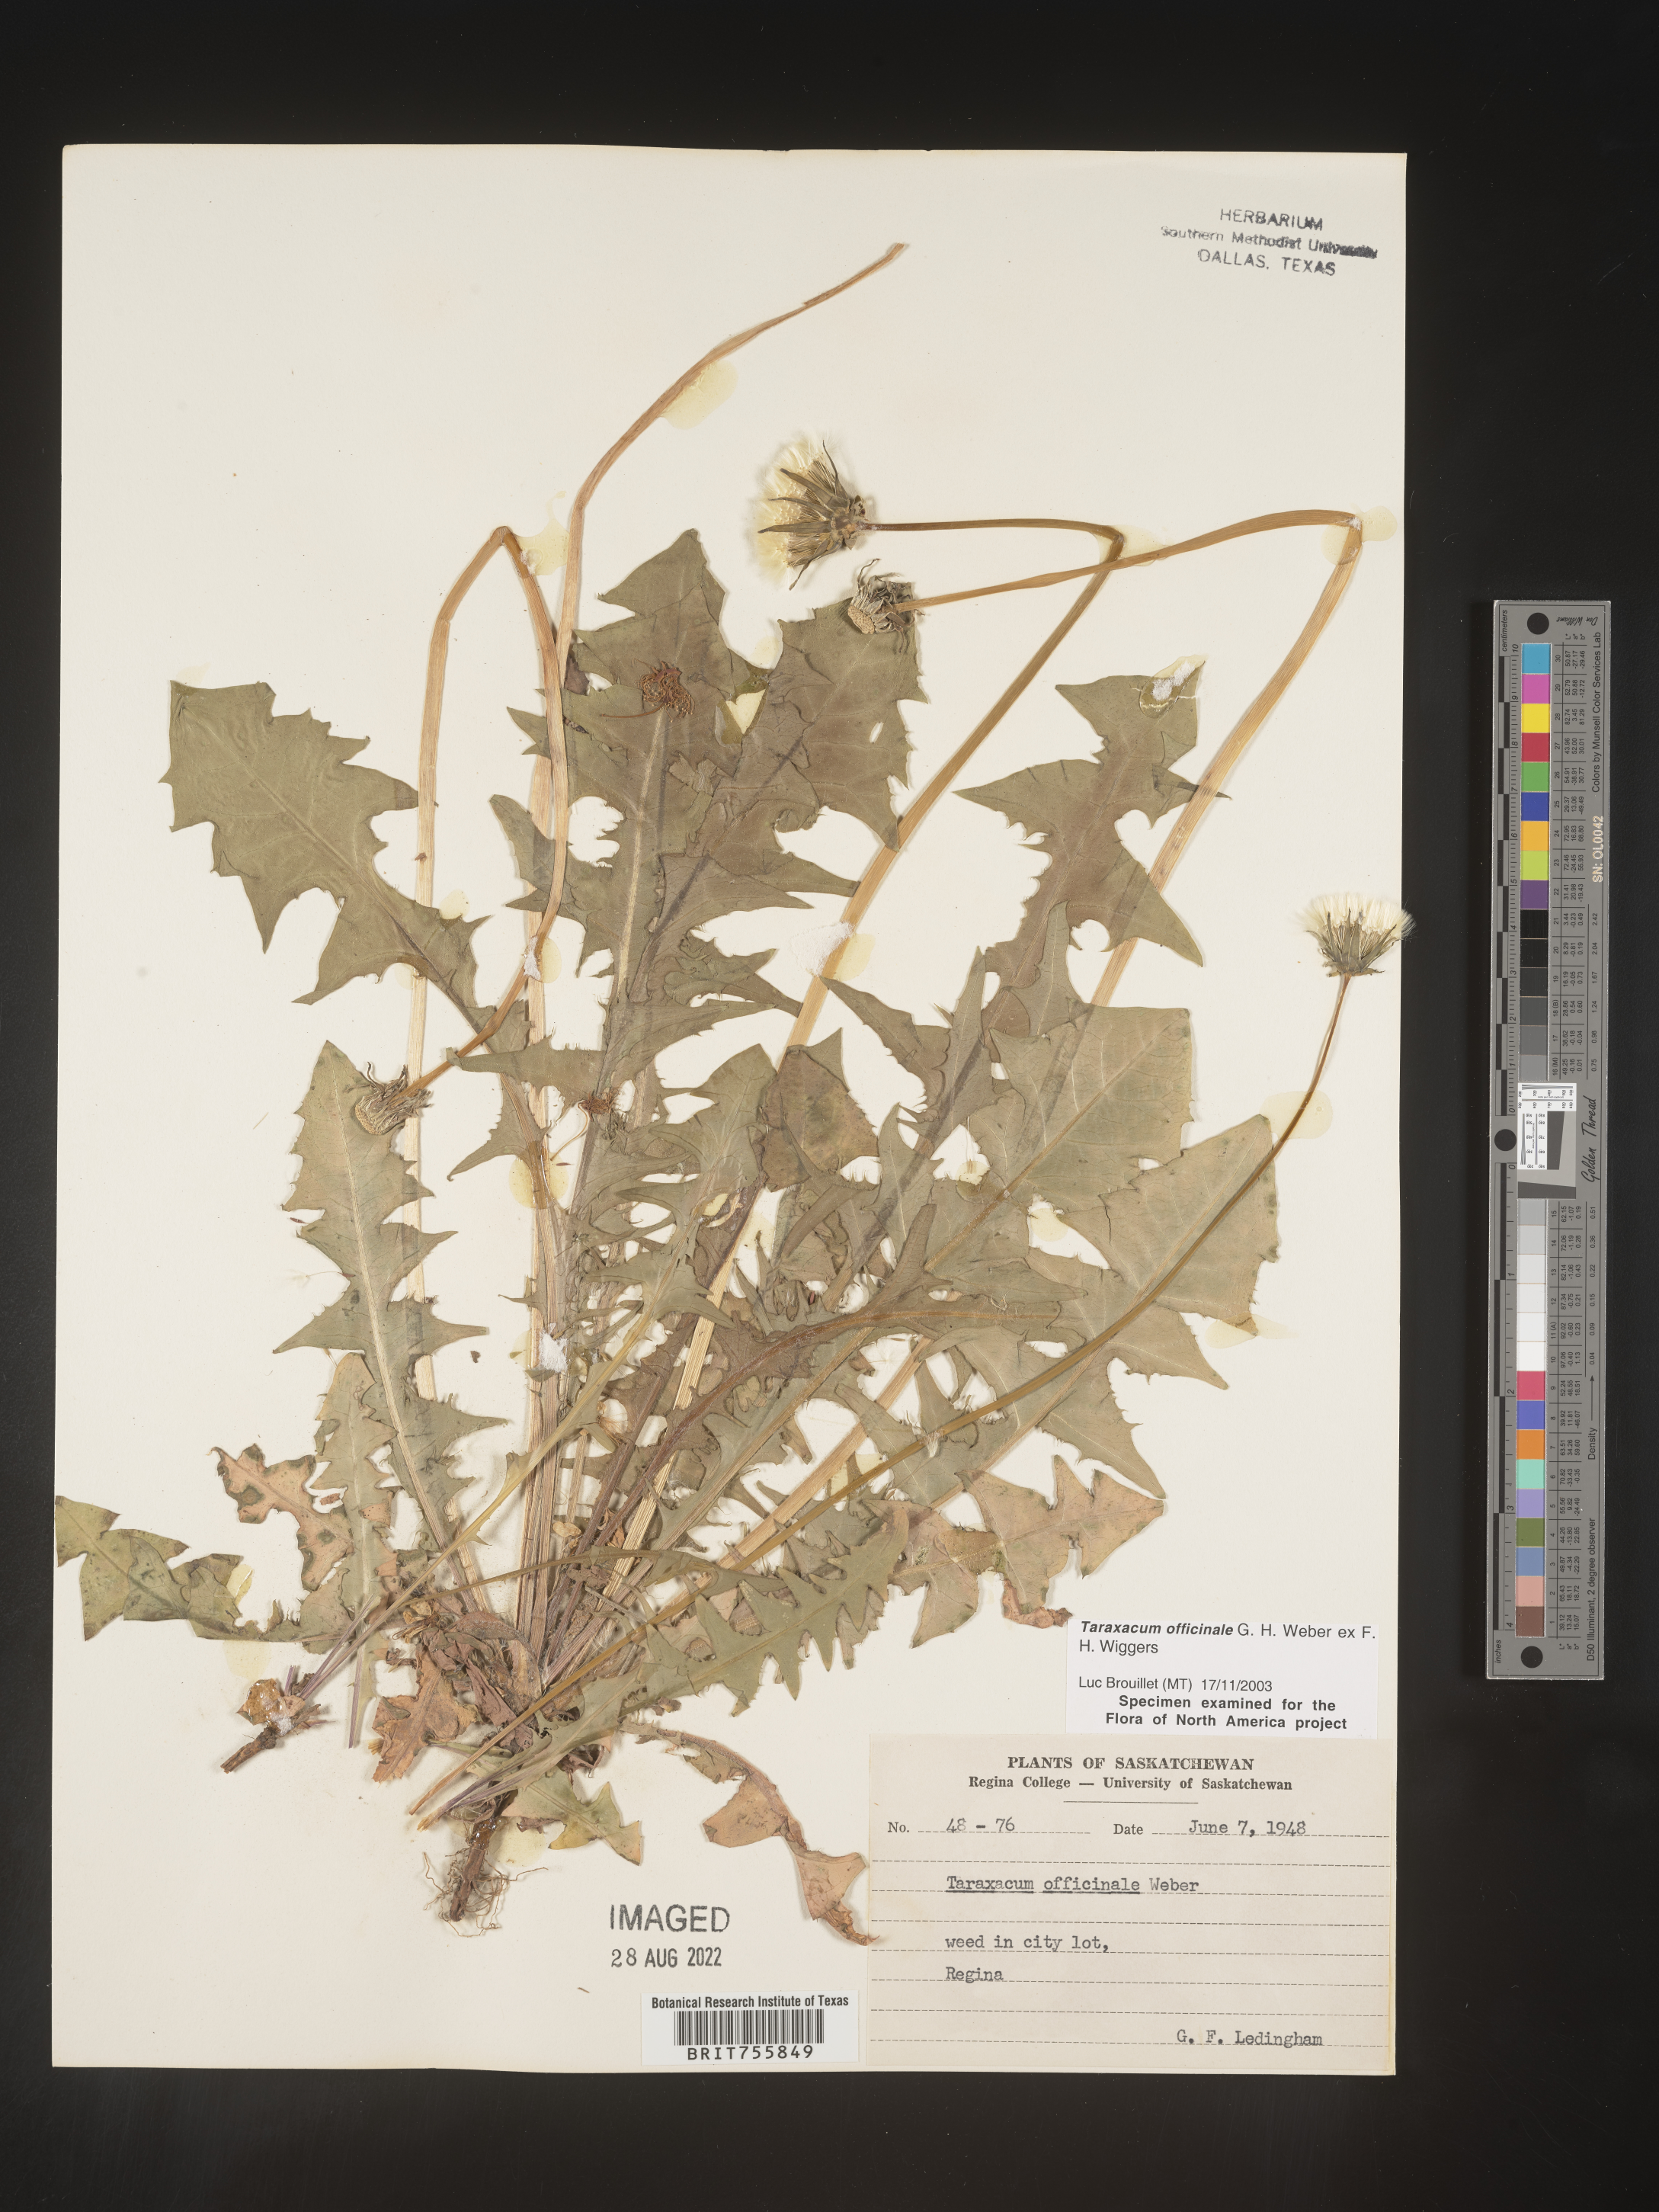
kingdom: Plantae
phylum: Tracheophyta
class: Magnoliopsida
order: Asterales
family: Asteraceae
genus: Taraxacum
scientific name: Taraxacum officinale
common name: Common dandelion
